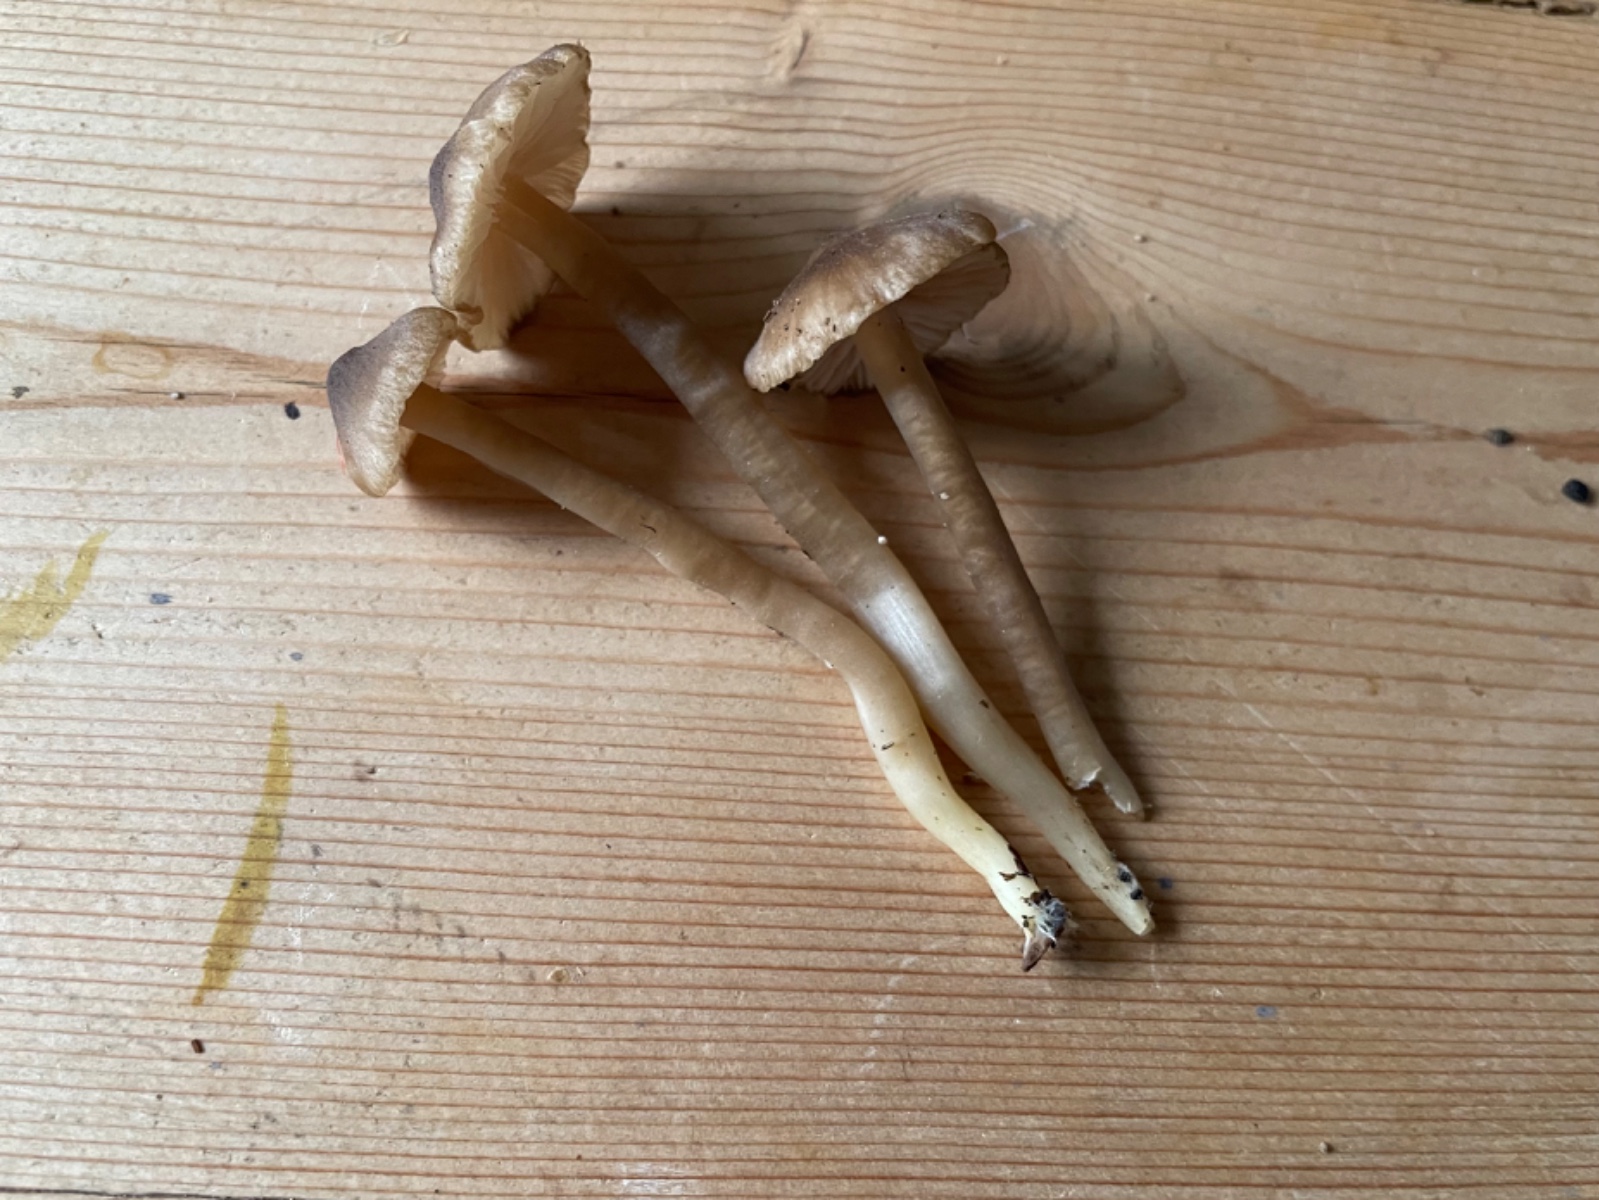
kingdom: Fungi
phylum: Basidiomycota
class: Agaricomycetes
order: Agaricales
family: Entolomataceae
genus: Entoloma
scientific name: Entoloma
